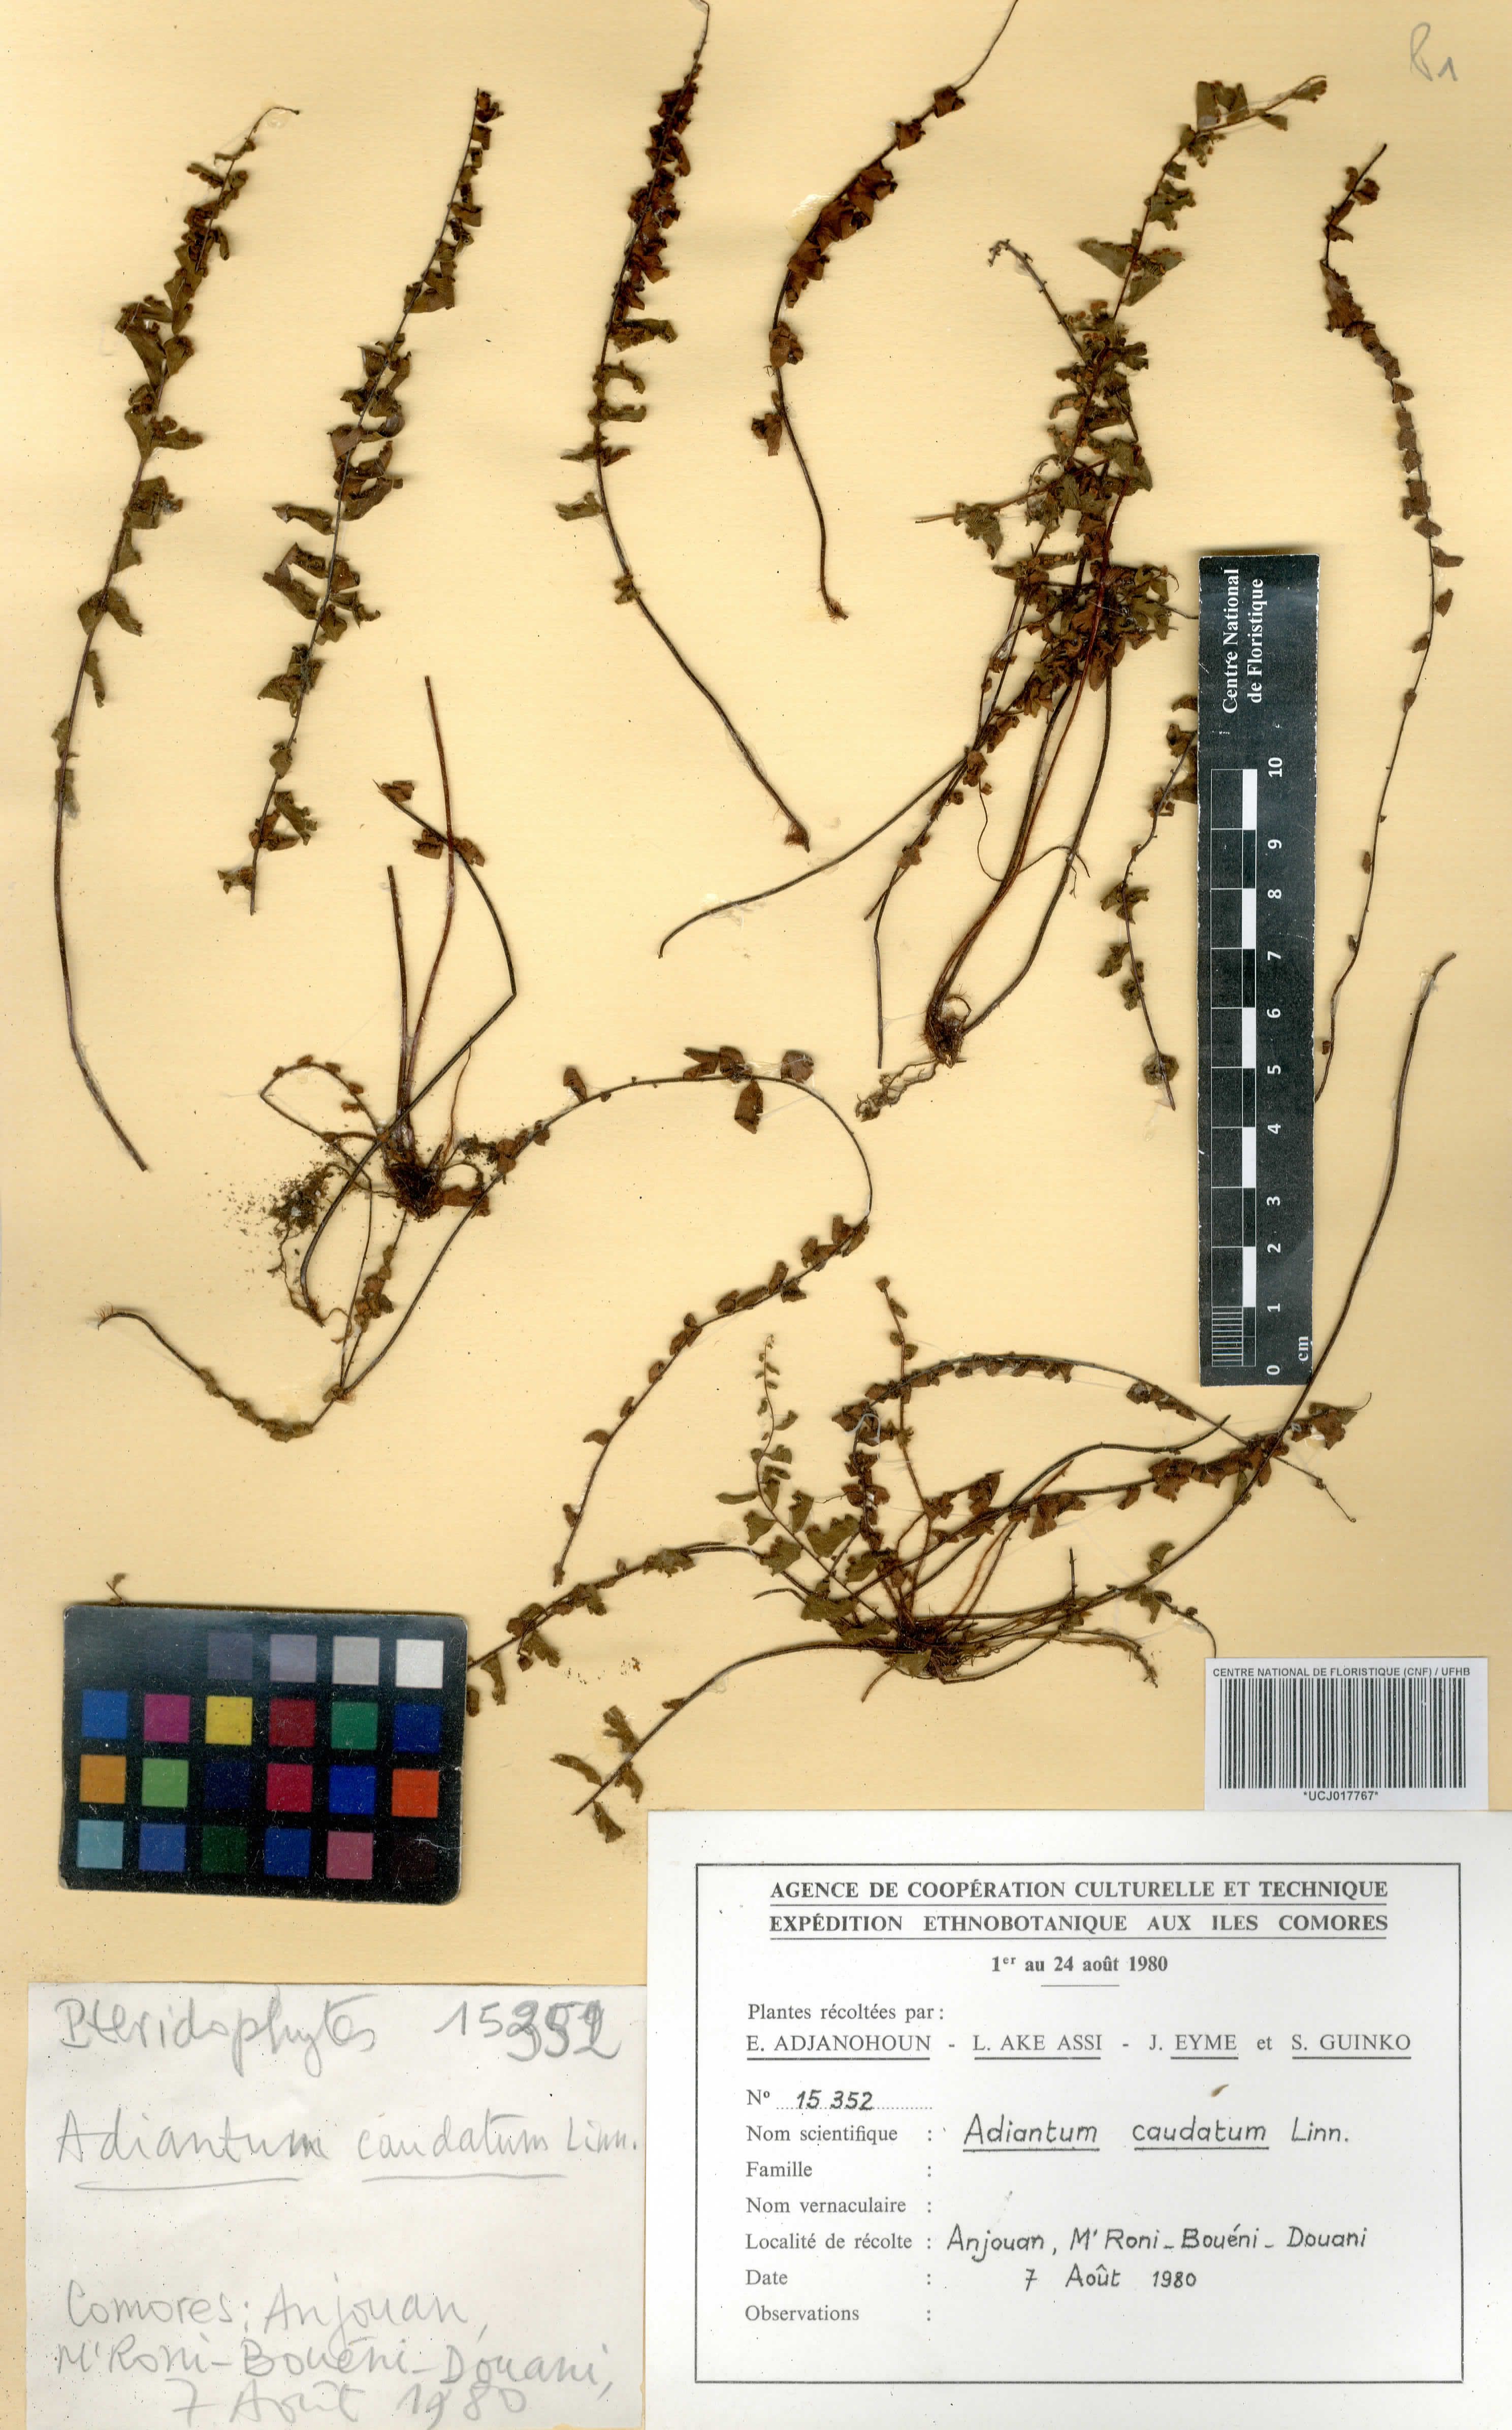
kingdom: Plantae
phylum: Tracheophyta
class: Polypodiopsida
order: Polypodiales
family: Pteridaceae
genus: Adiantum
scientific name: Adiantum caudatum
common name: Tailed maidenhair
